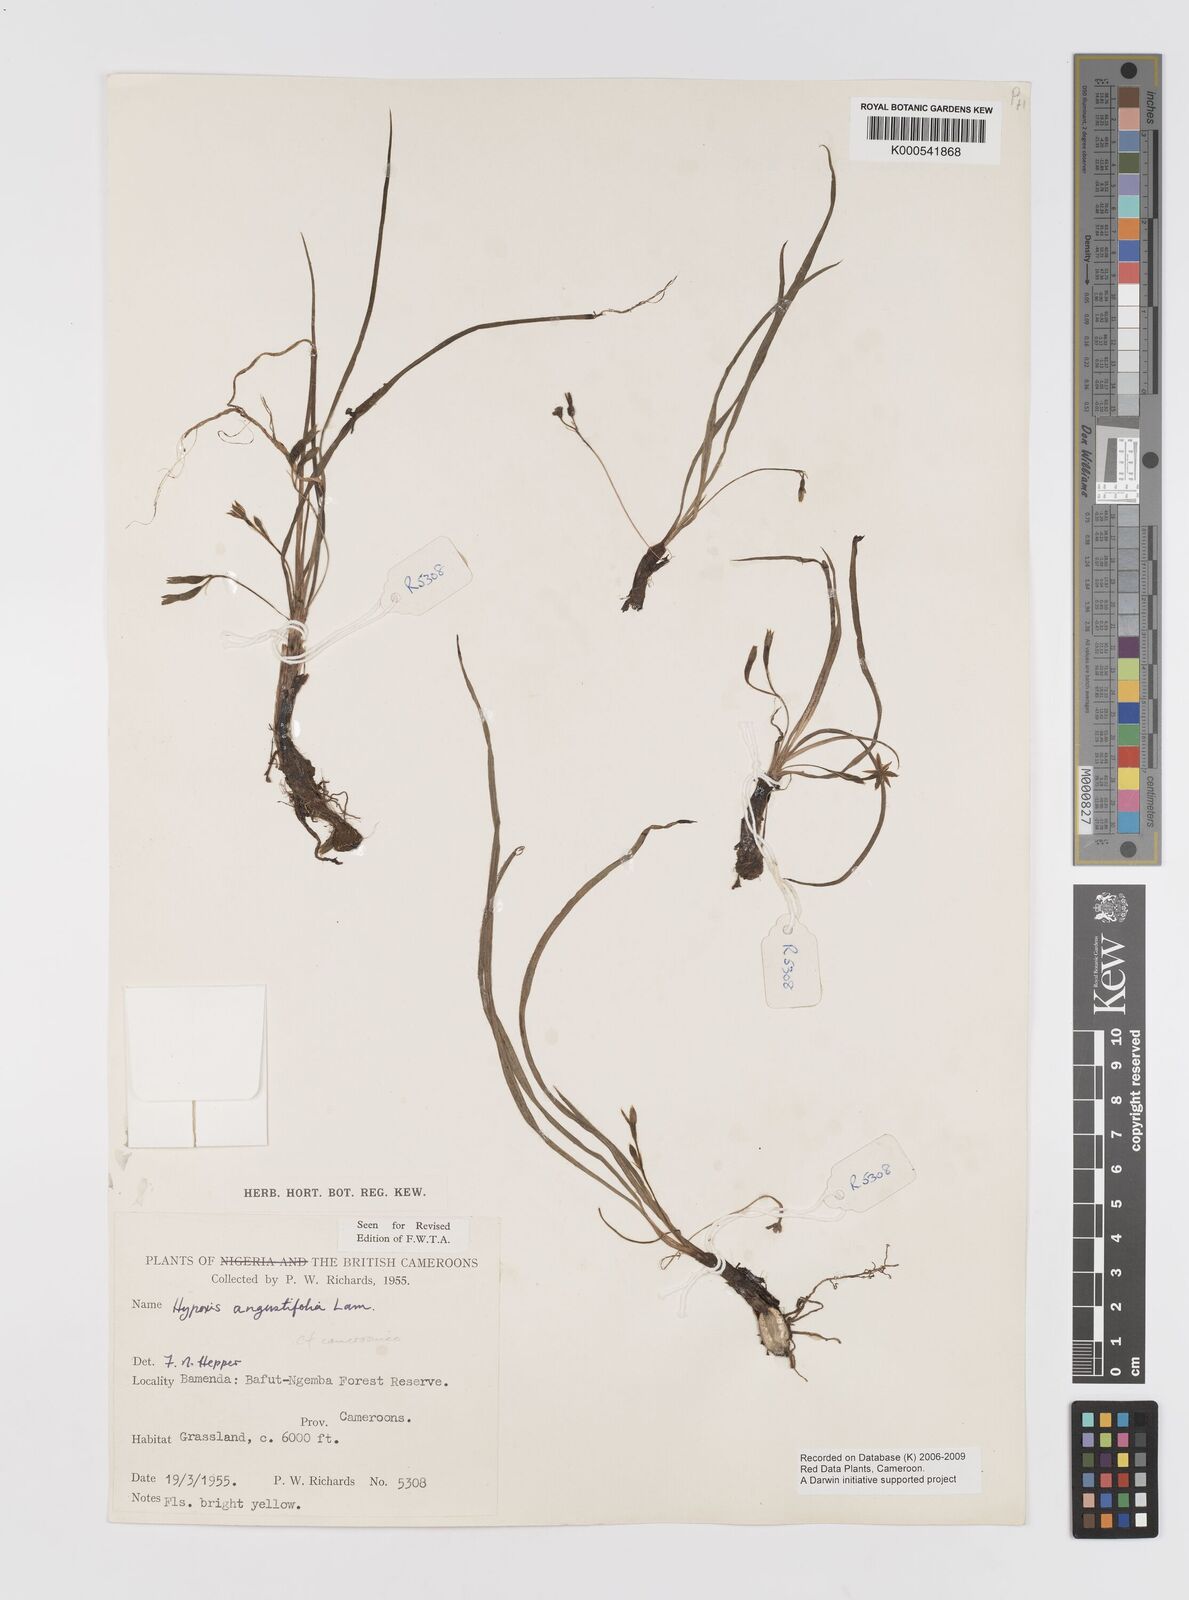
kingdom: Plantae
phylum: Tracheophyta
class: Liliopsida
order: Asparagales
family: Hypoxidaceae
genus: Hypoxis
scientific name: Hypoxis camerooniana
